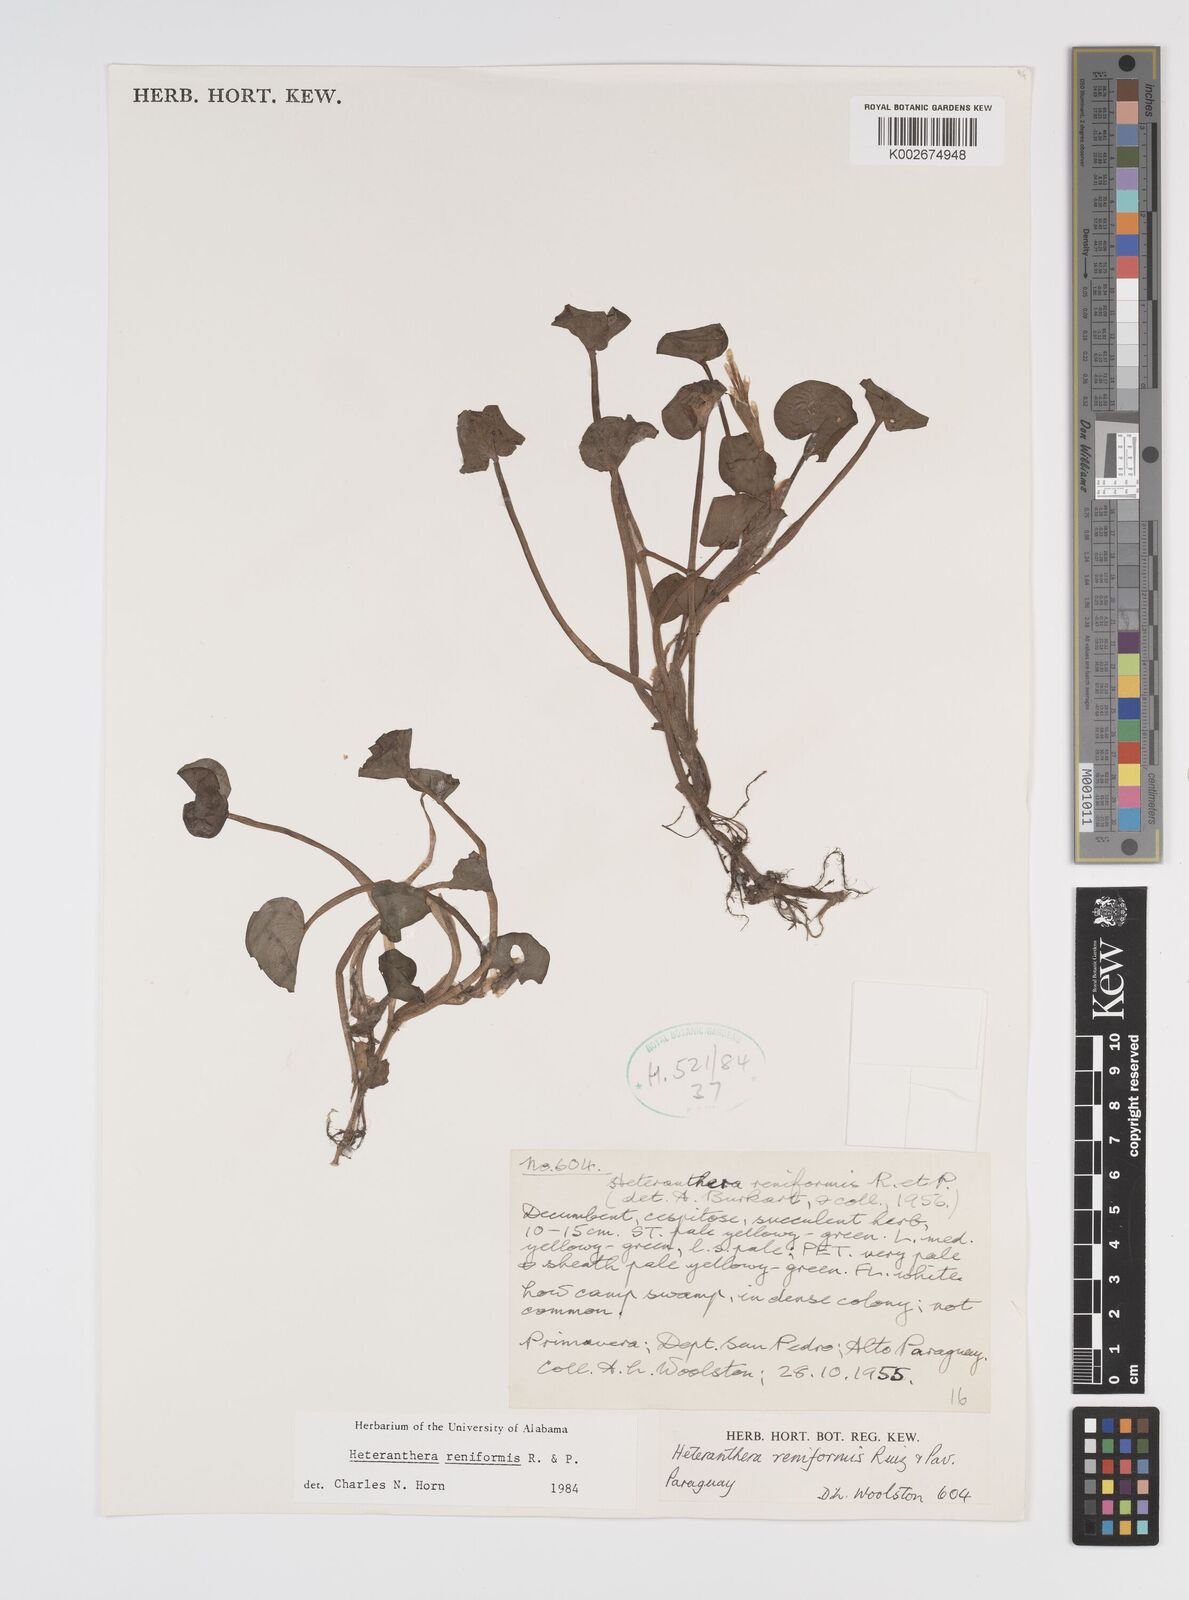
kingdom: Plantae
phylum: Tracheophyta
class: Liliopsida
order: Commelinales
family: Pontederiaceae
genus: Heteranthera
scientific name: Heteranthera reniformis
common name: Kidneyleaf mudplantain
